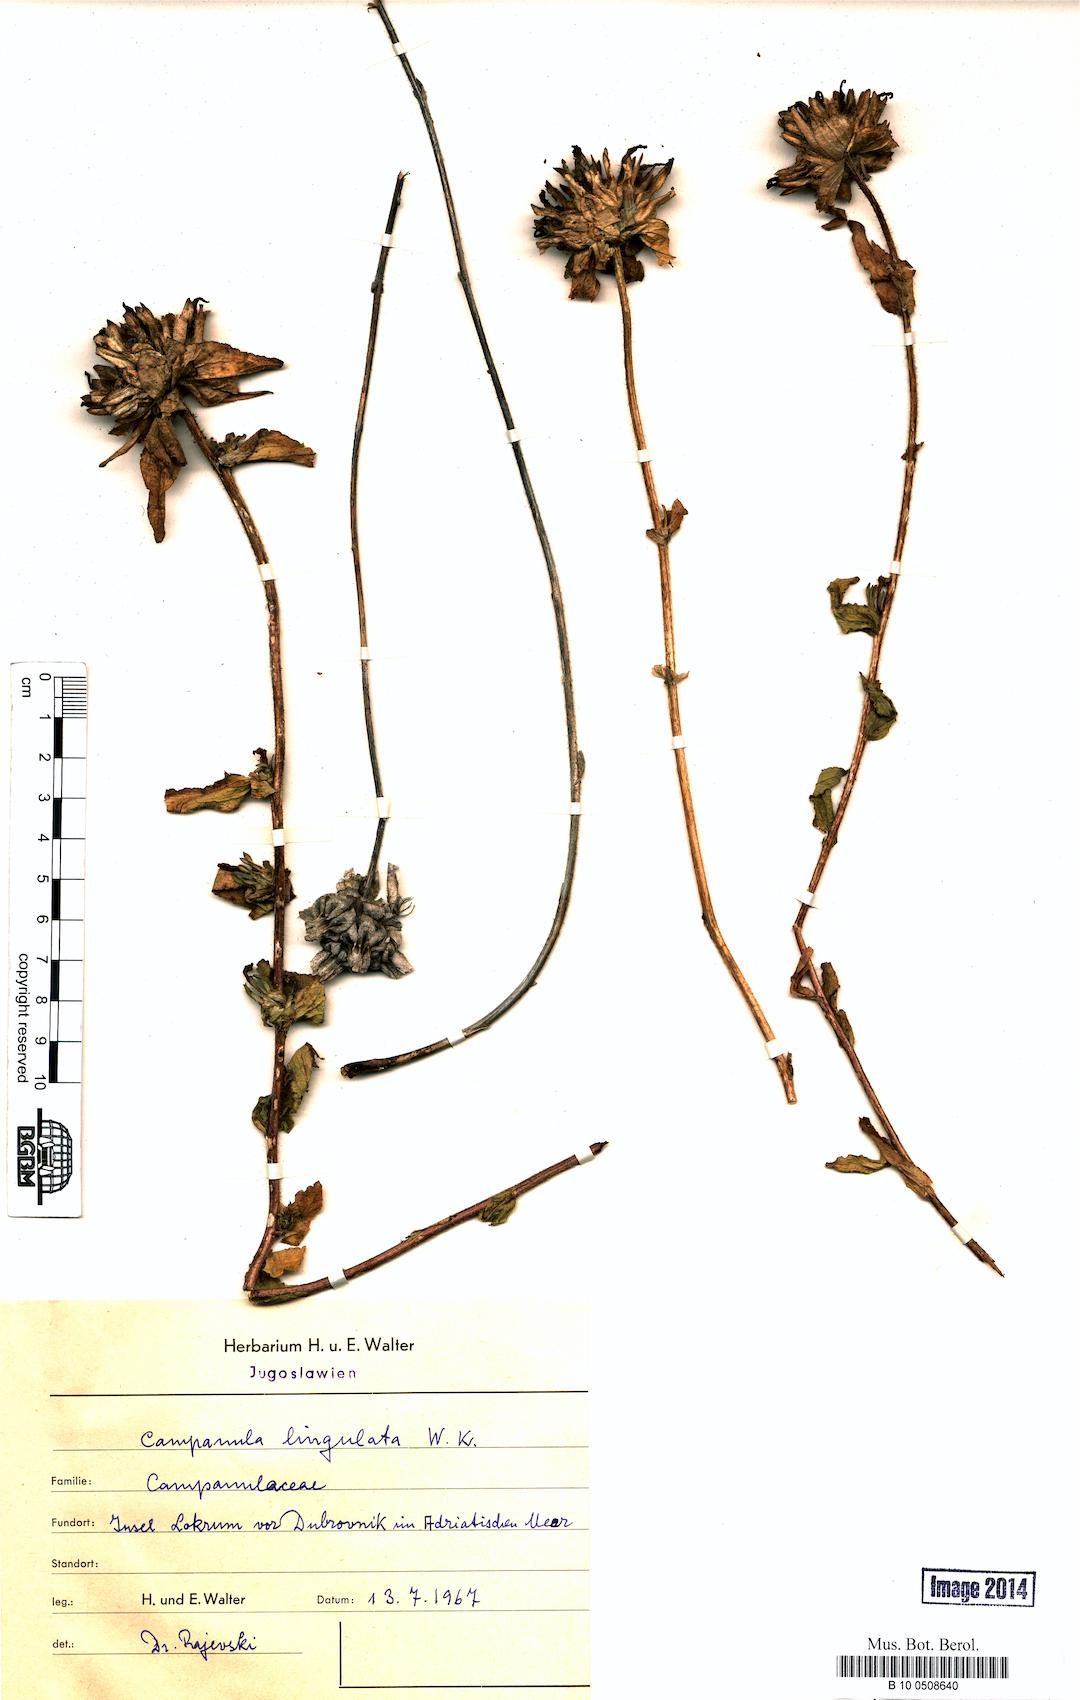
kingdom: Plantae
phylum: Tracheophyta
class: Magnoliopsida
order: Asterales
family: Campanulaceae
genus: Campanula
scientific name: Campanula lingulata
